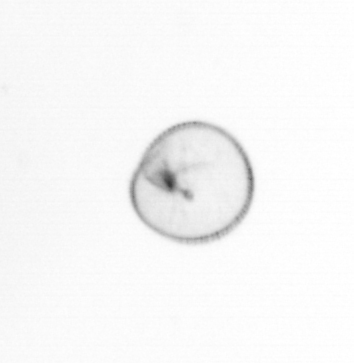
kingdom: Chromista
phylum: Myzozoa
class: Dinophyceae
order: Noctilucales
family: Noctilucaceae
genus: Noctiluca
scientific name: Noctiluca scintillans
